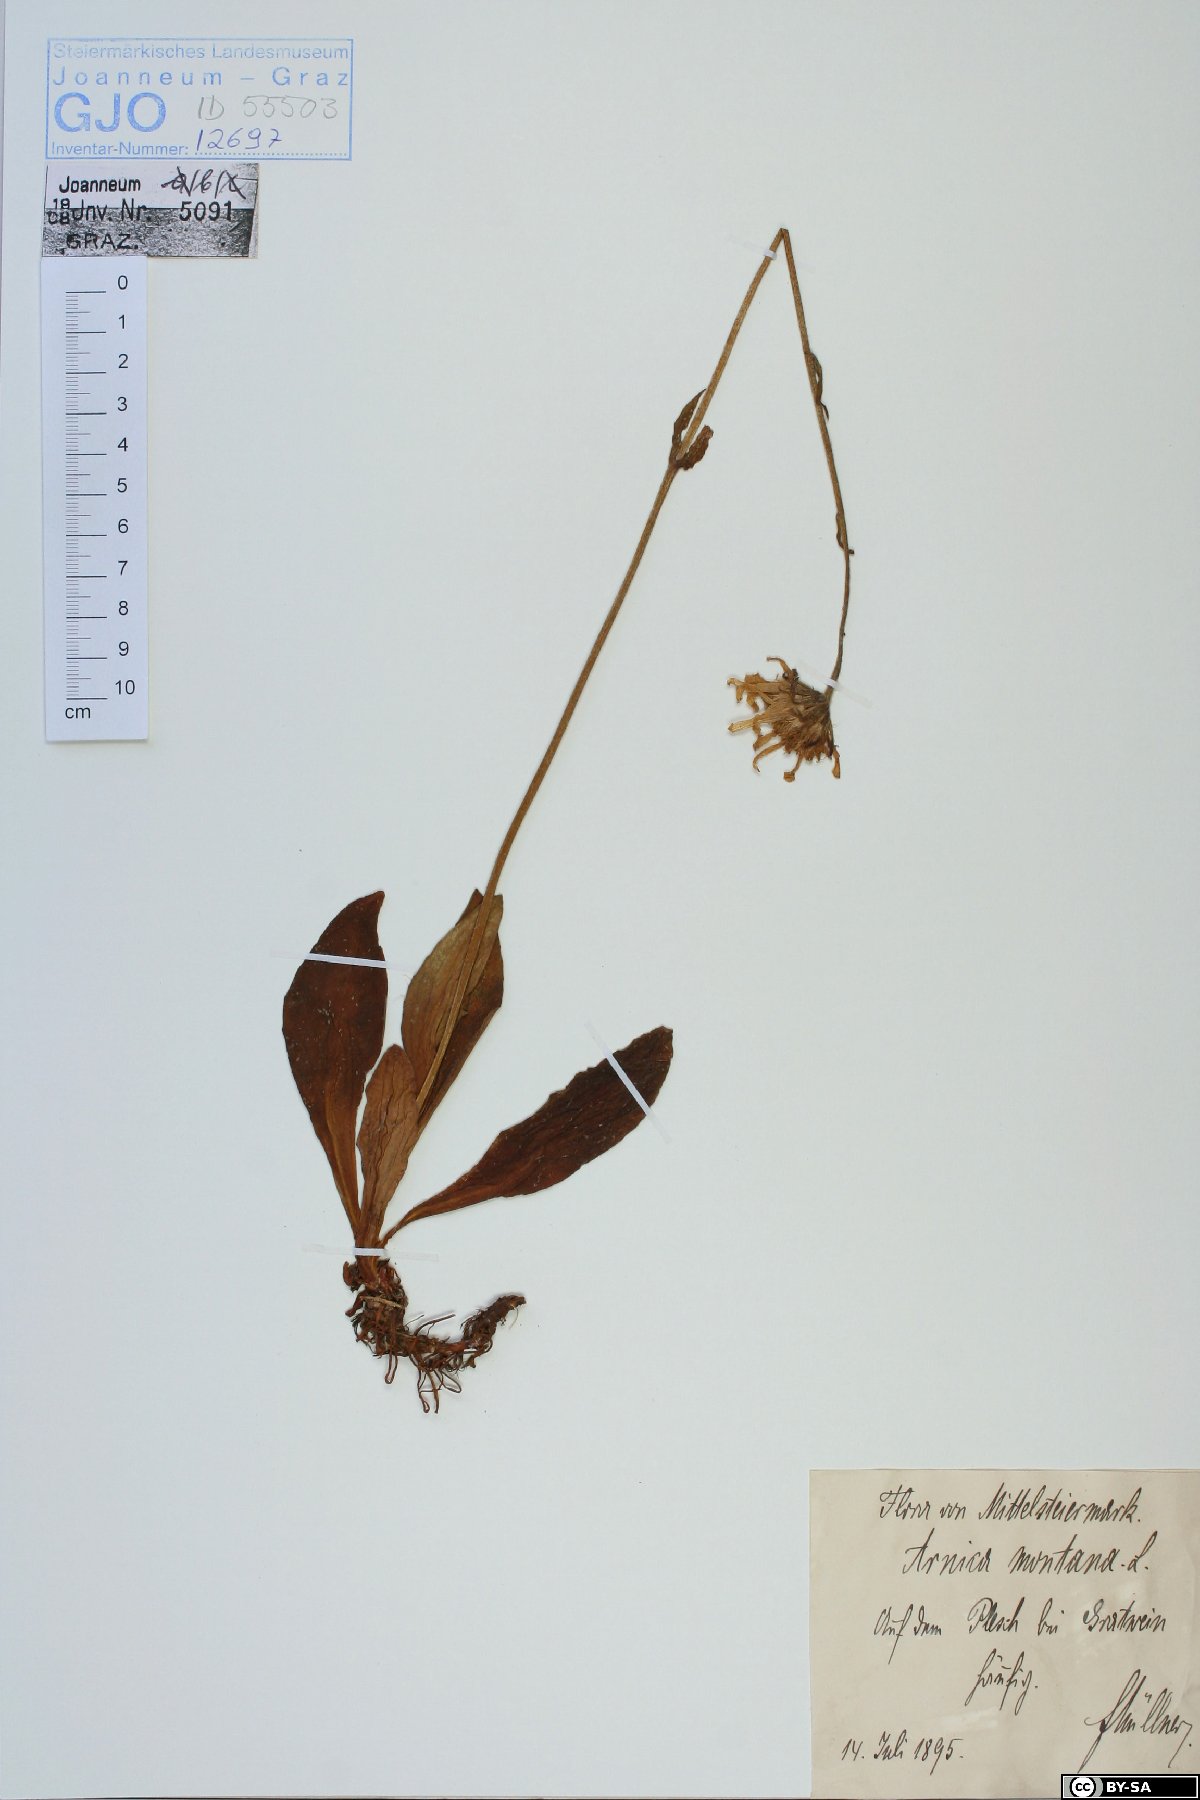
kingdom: Plantae
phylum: Tracheophyta
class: Magnoliopsida
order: Asterales
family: Asteraceae
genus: Arnica
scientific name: Arnica montana
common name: Leopard's bane
